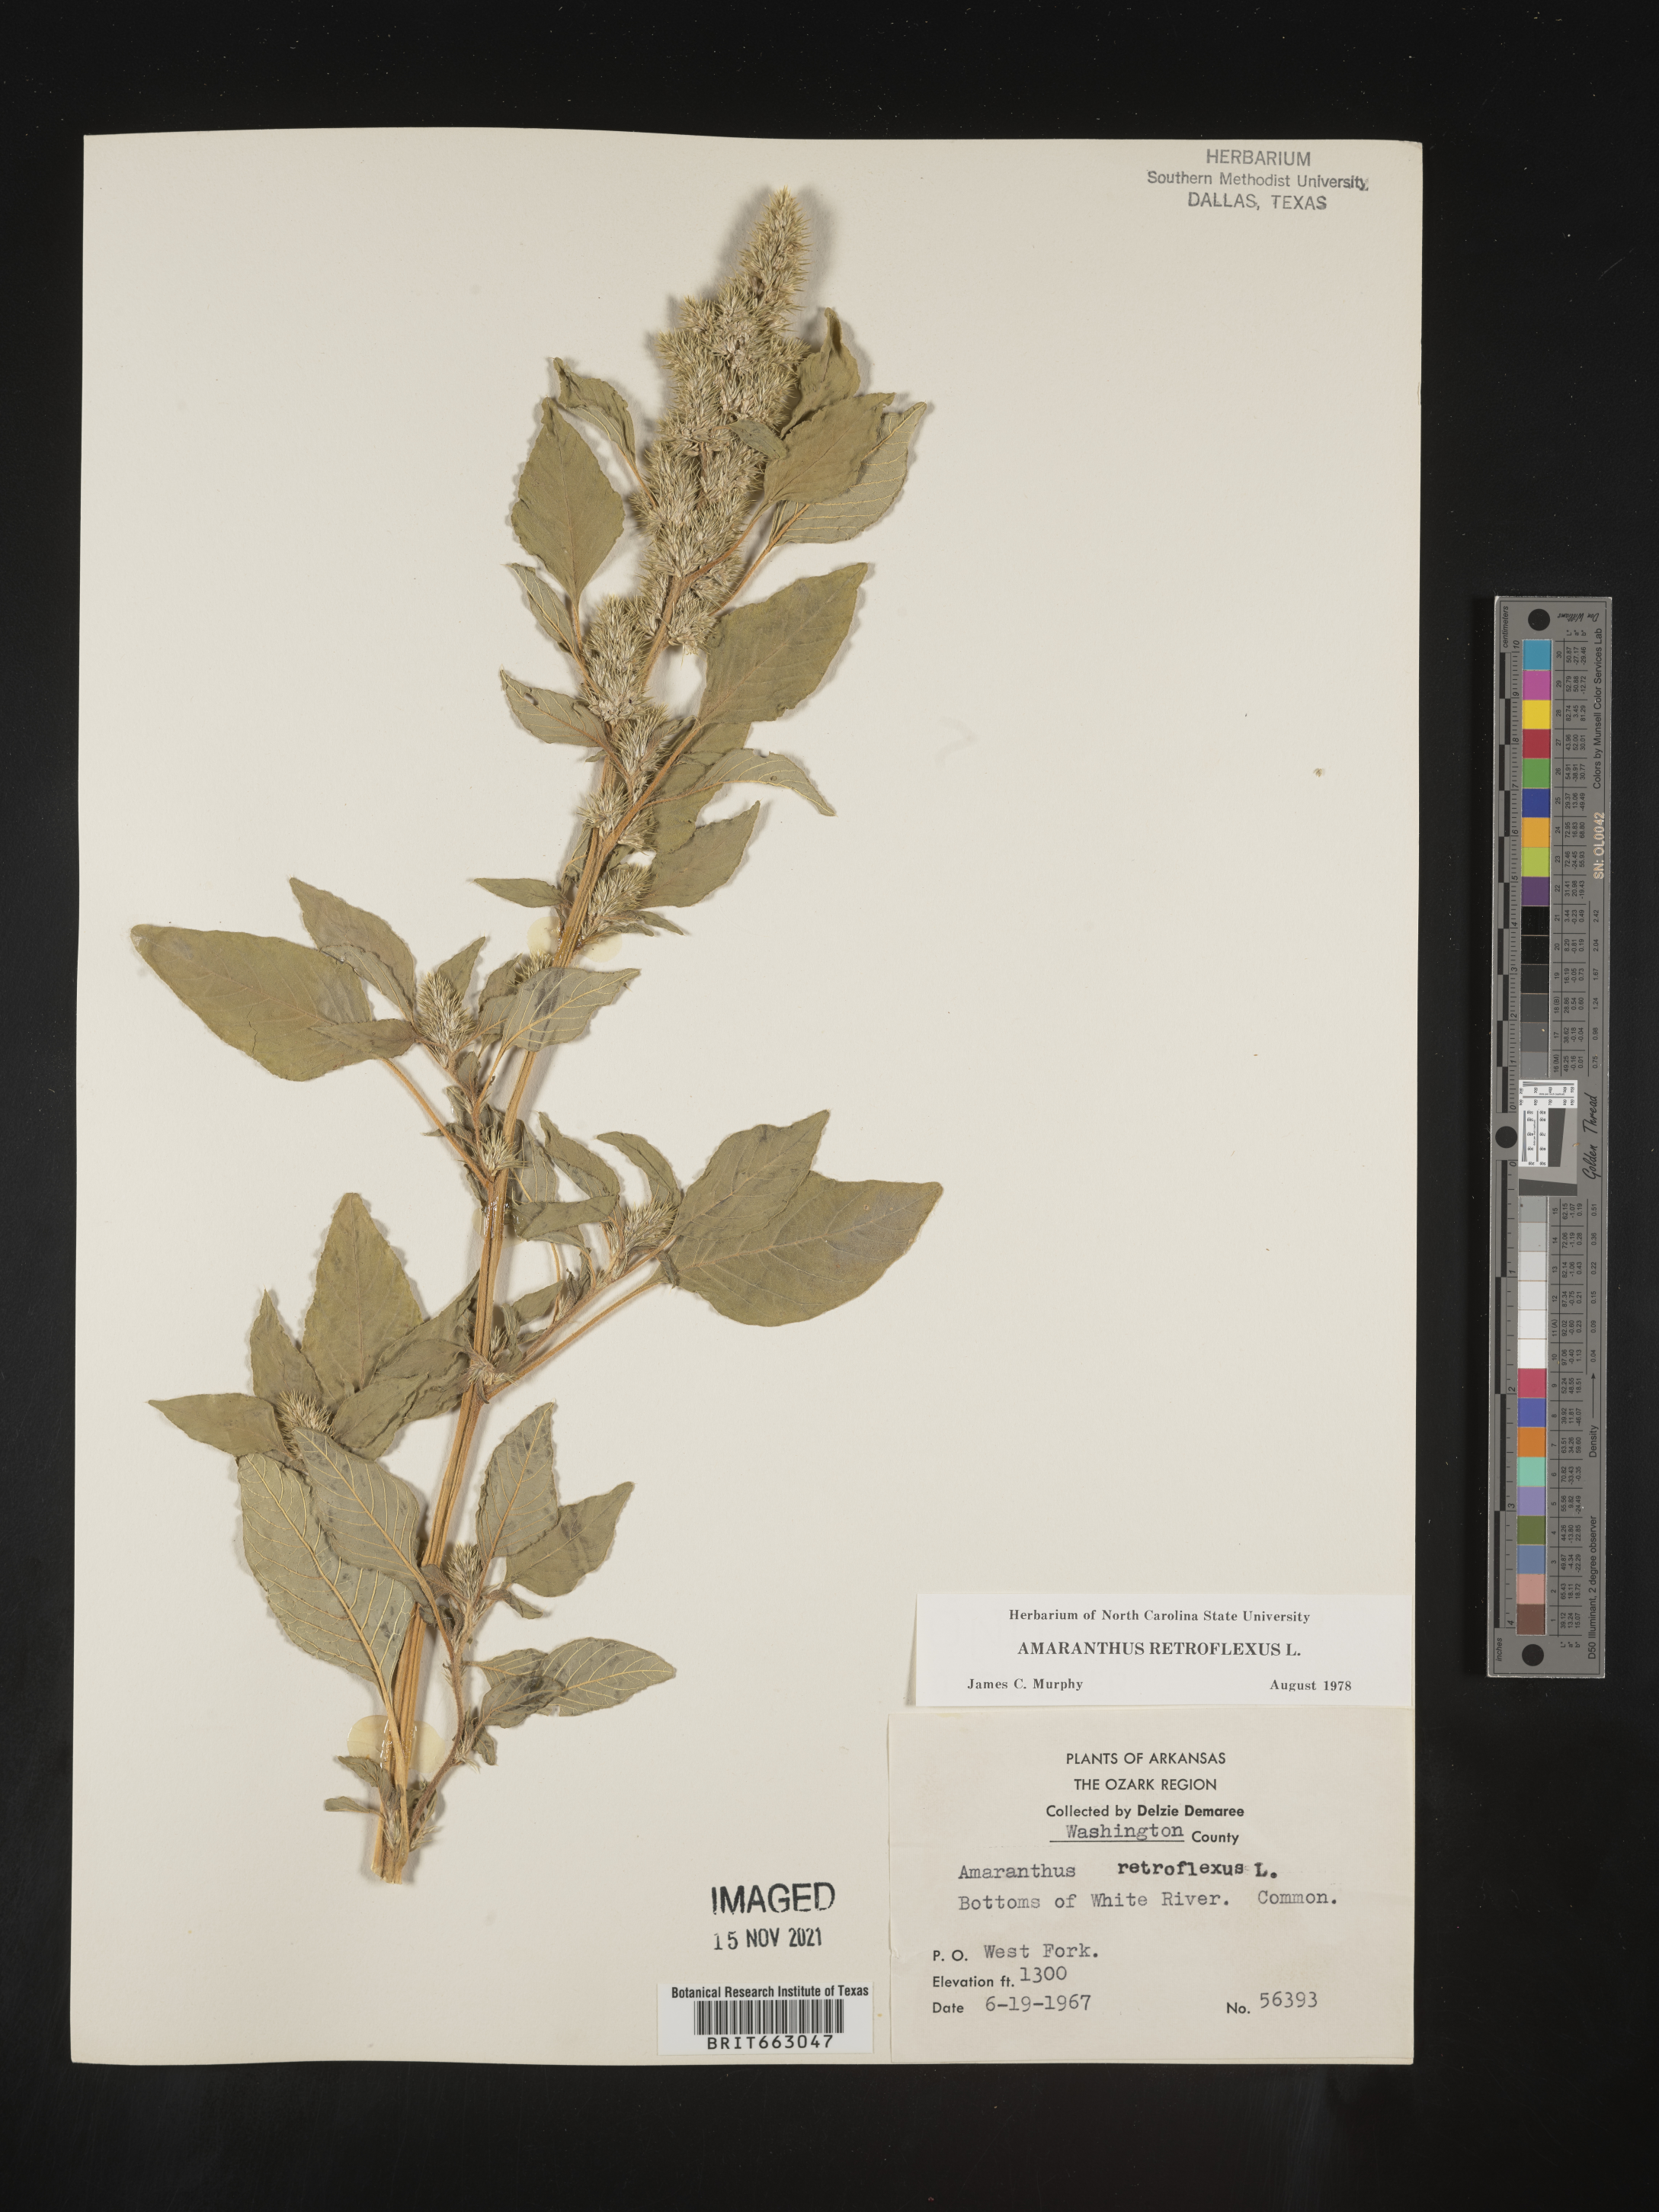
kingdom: Plantae
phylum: Tracheophyta
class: Magnoliopsida
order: Caryophyllales
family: Amaranthaceae
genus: Amaranthus
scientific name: Amaranthus retroflexus
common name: Redroot amaranth
